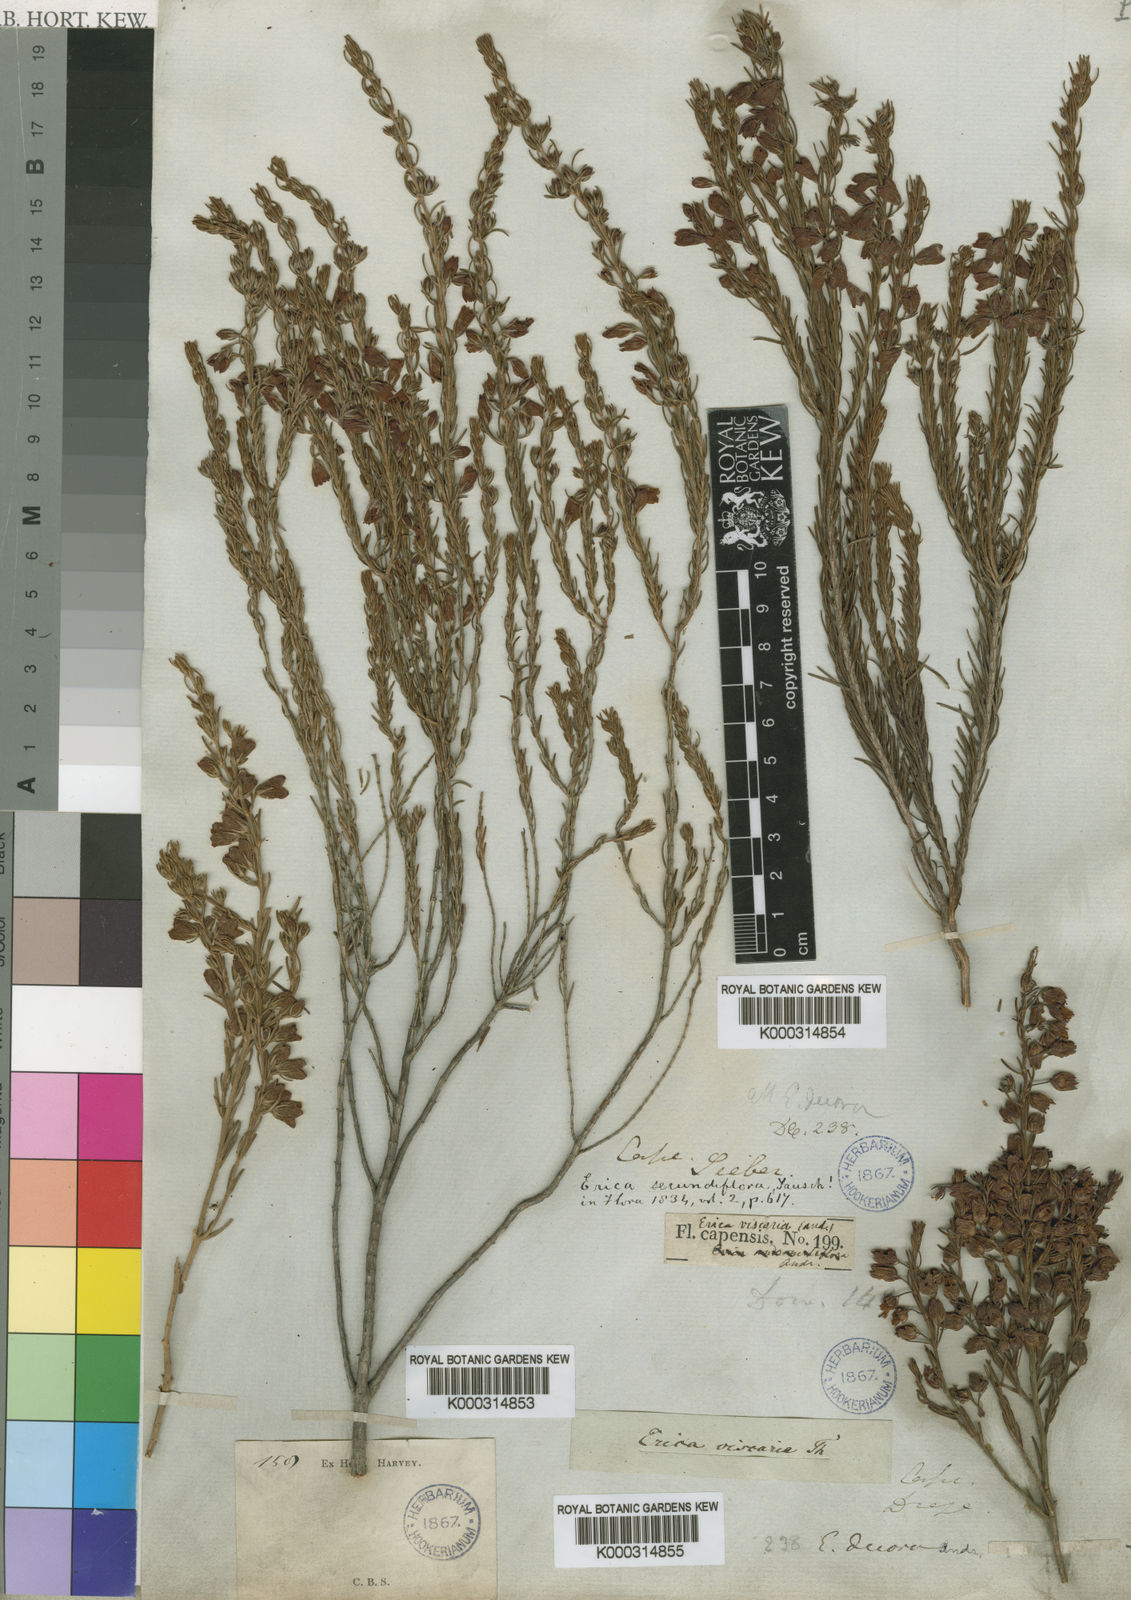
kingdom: Plantae
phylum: Tracheophyta
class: Magnoliopsida
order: Ericales
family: Ericaceae
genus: Erica
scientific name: Erica viscaria
